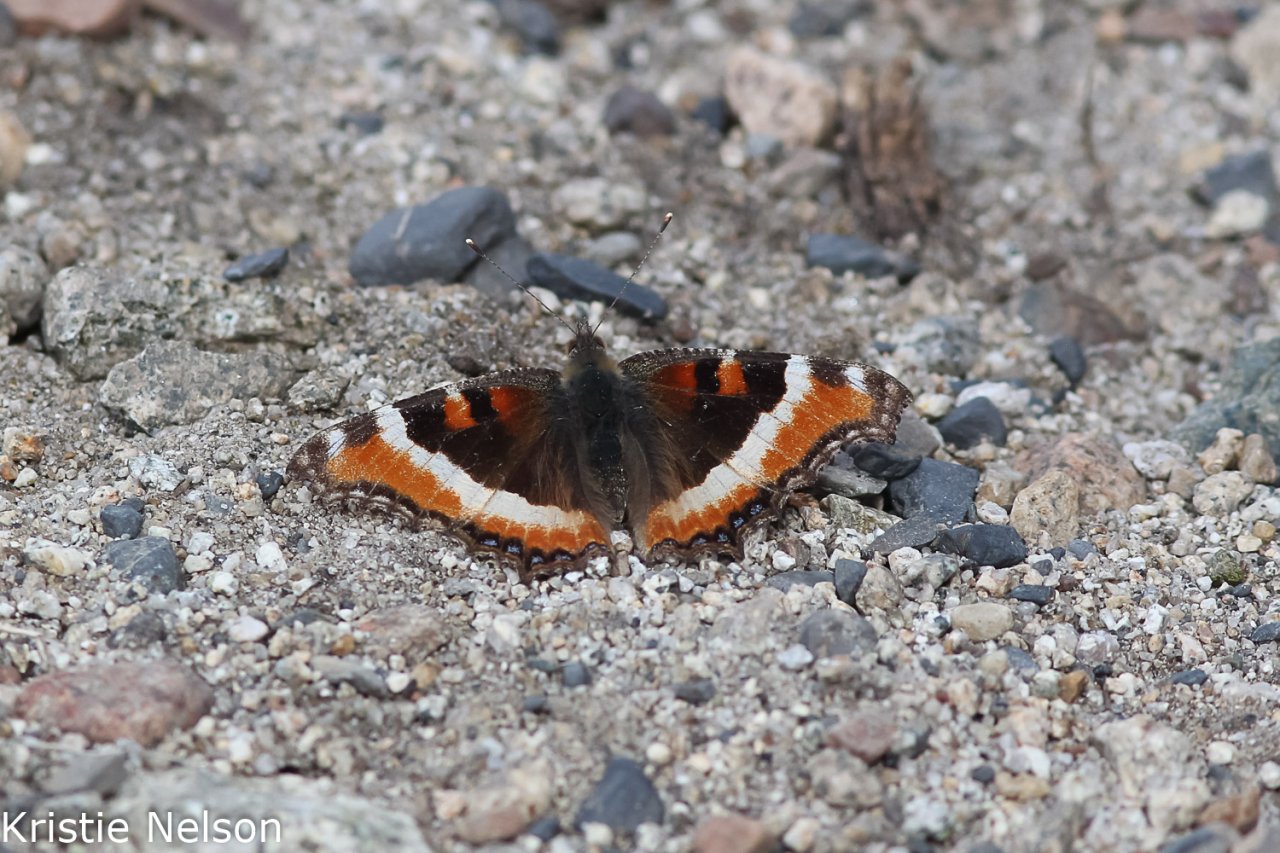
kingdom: Animalia
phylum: Arthropoda
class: Insecta
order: Lepidoptera
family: Nymphalidae
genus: Aglais
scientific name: Aglais milberti
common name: Milbert's Tortoiseshell
